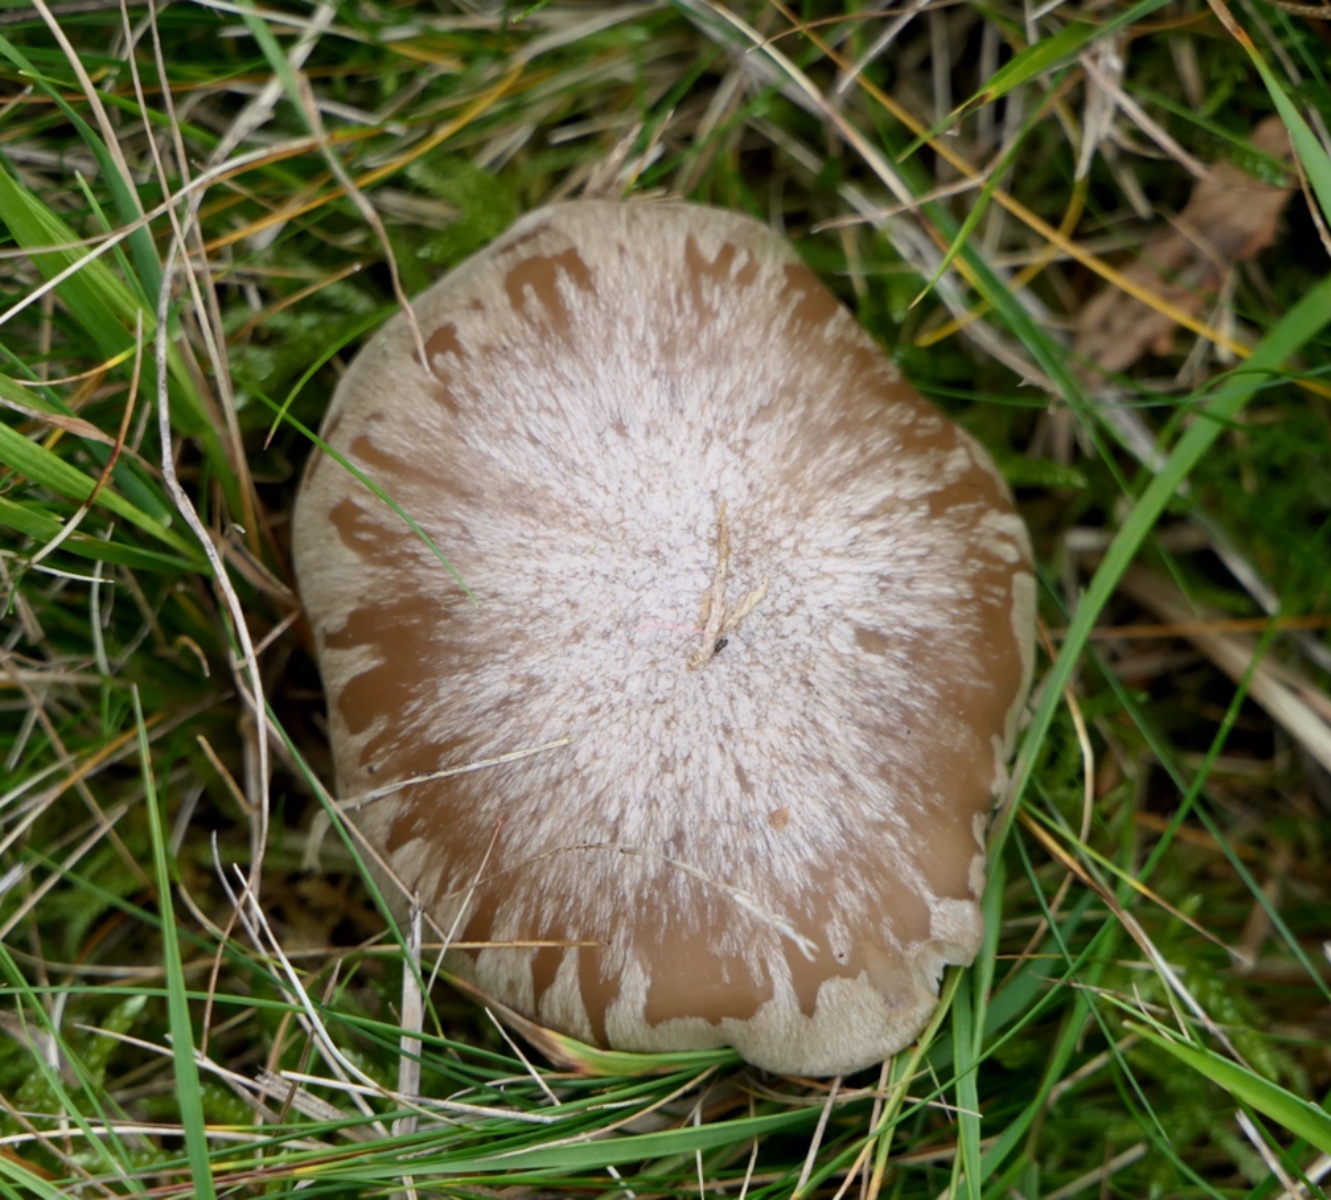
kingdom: Fungi
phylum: Basidiomycota
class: Agaricomycetes
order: Agaricales
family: Entolomataceae
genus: Entoloma
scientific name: Entoloma prunuloides
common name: mel-rødblad
